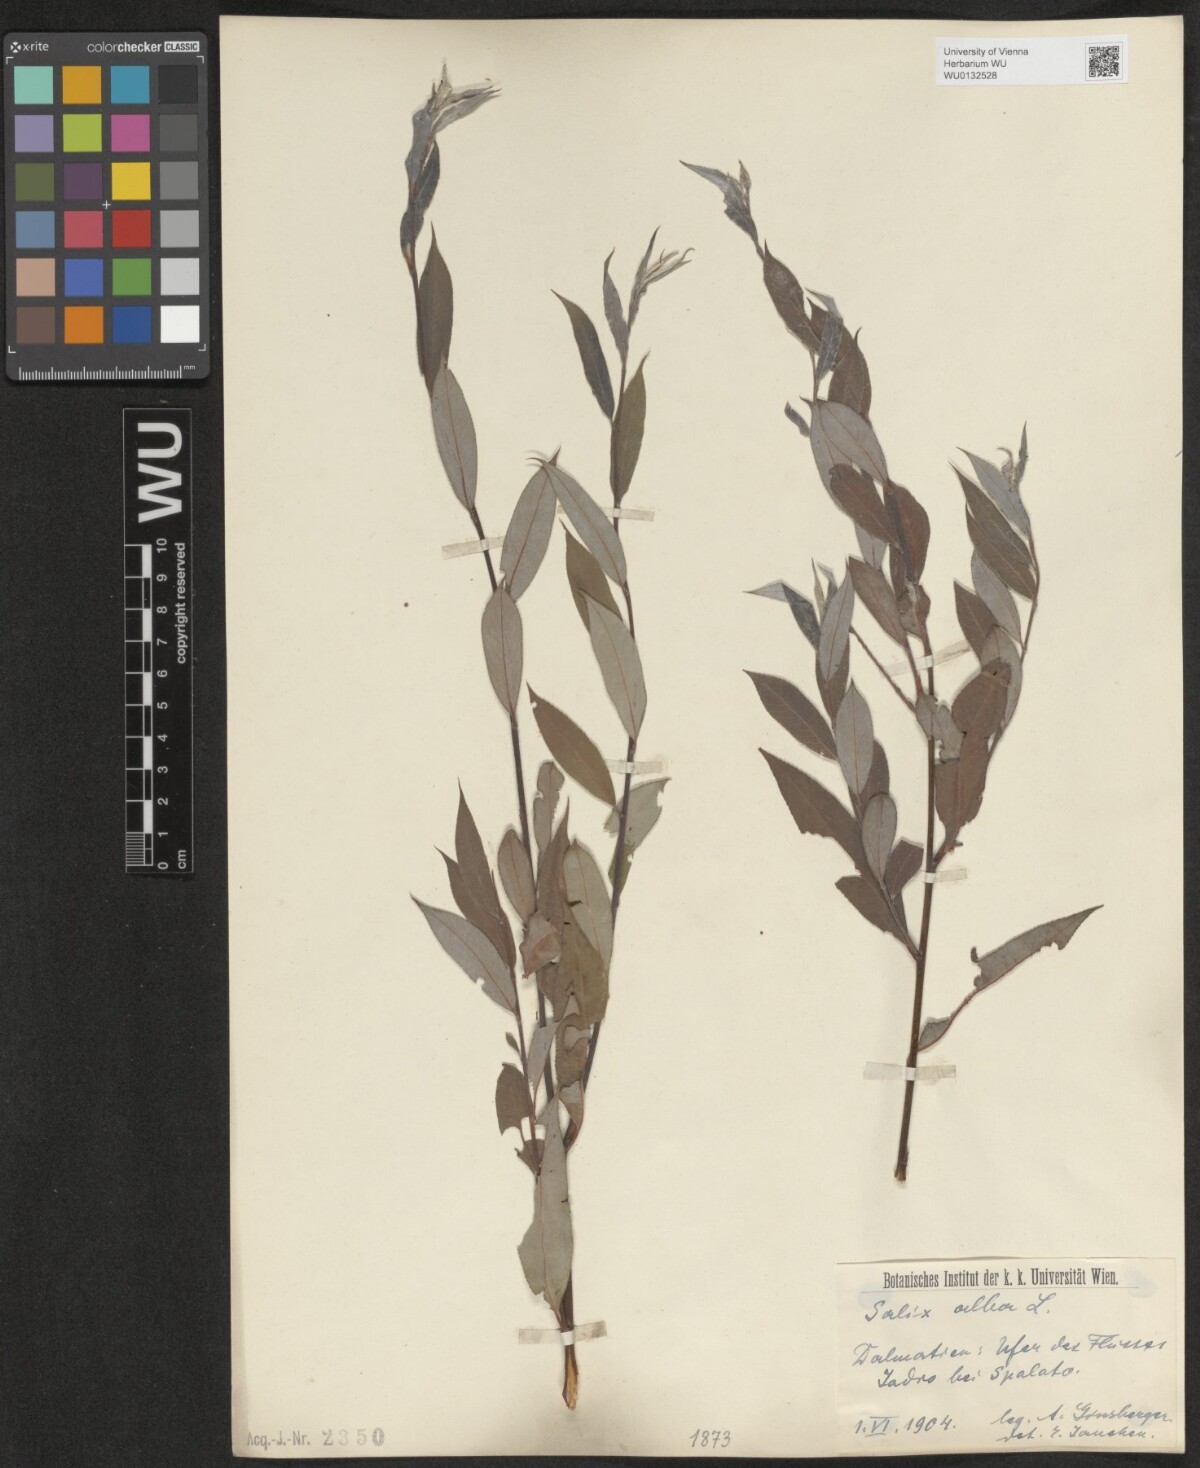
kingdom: Plantae
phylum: Tracheophyta
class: Magnoliopsida
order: Malpighiales
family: Salicaceae
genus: Salix
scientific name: Salix alba
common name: White willow
